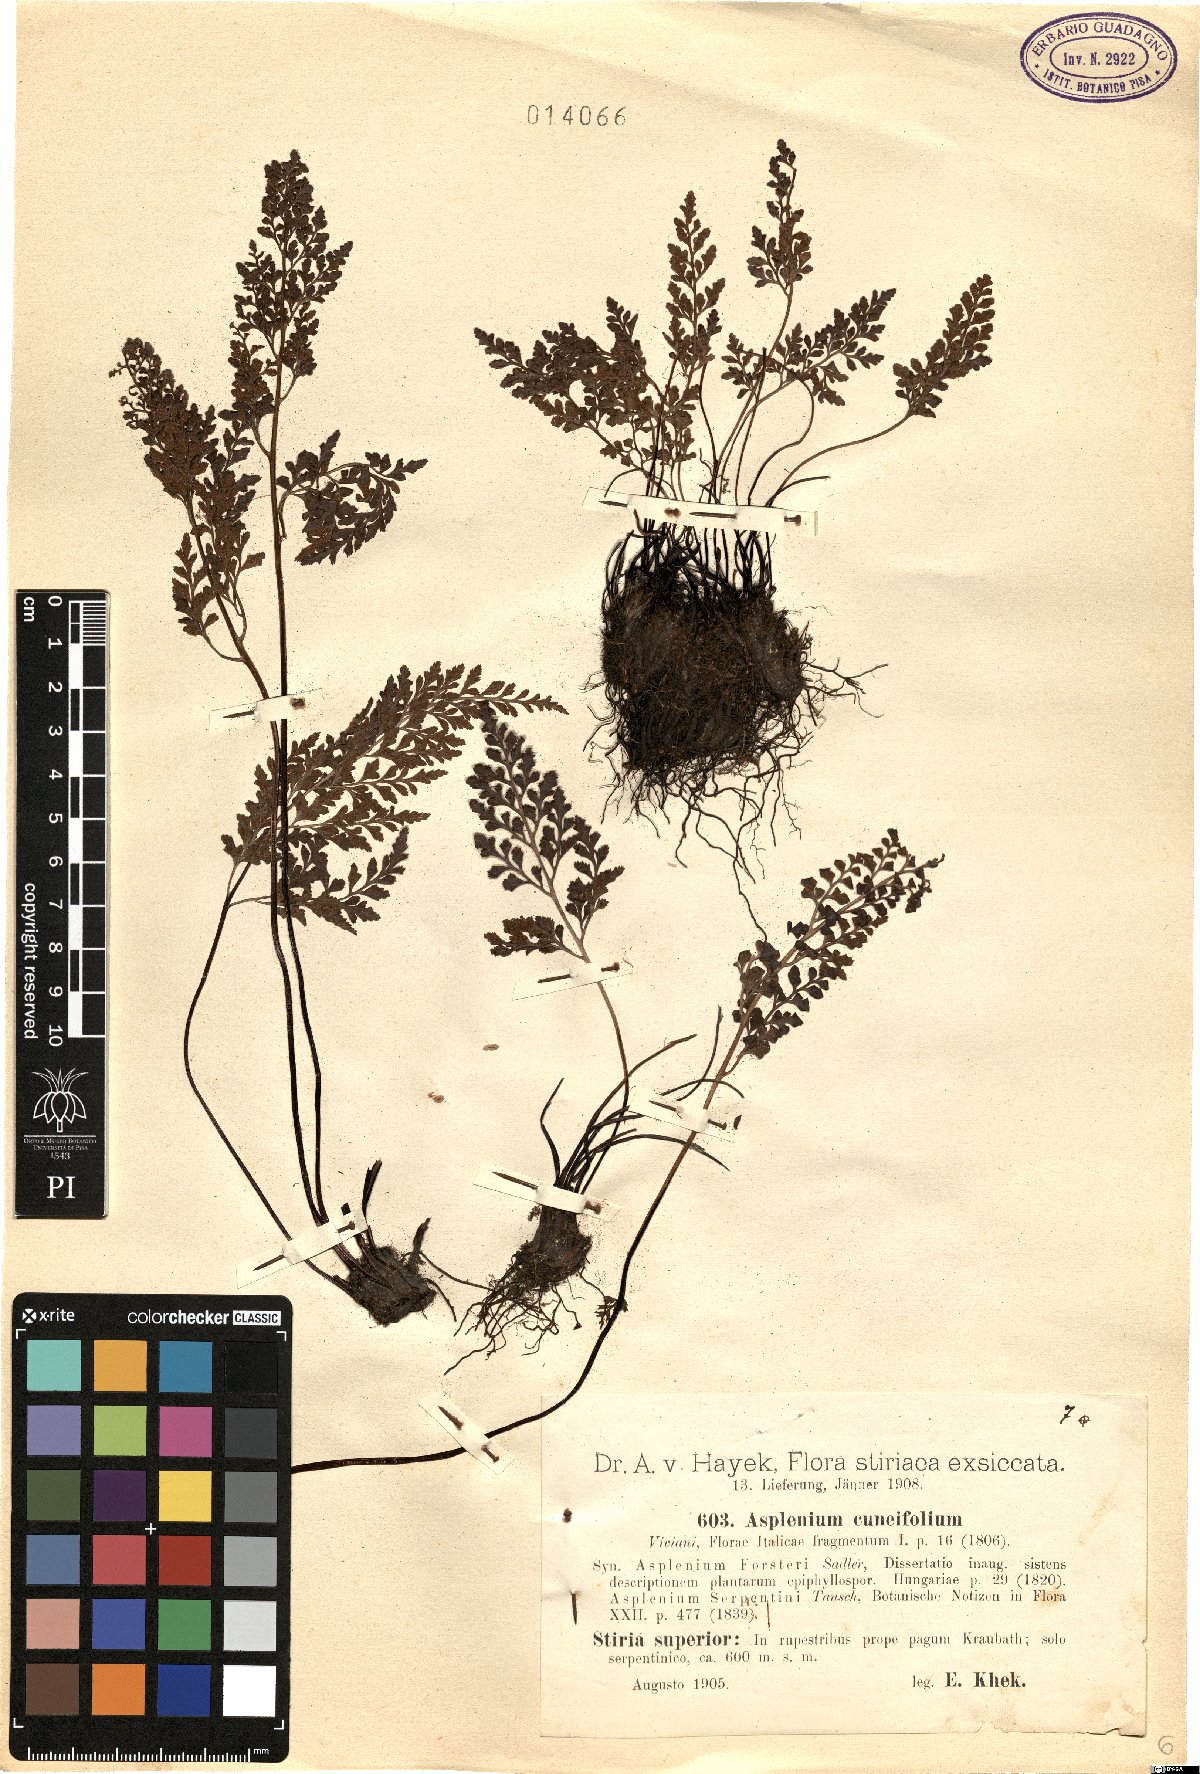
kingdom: Plantae
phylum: Tracheophyta
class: Polypodiopsida
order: Polypodiales
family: Aspleniaceae
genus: Asplenium
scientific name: Asplenium cuneifolium
